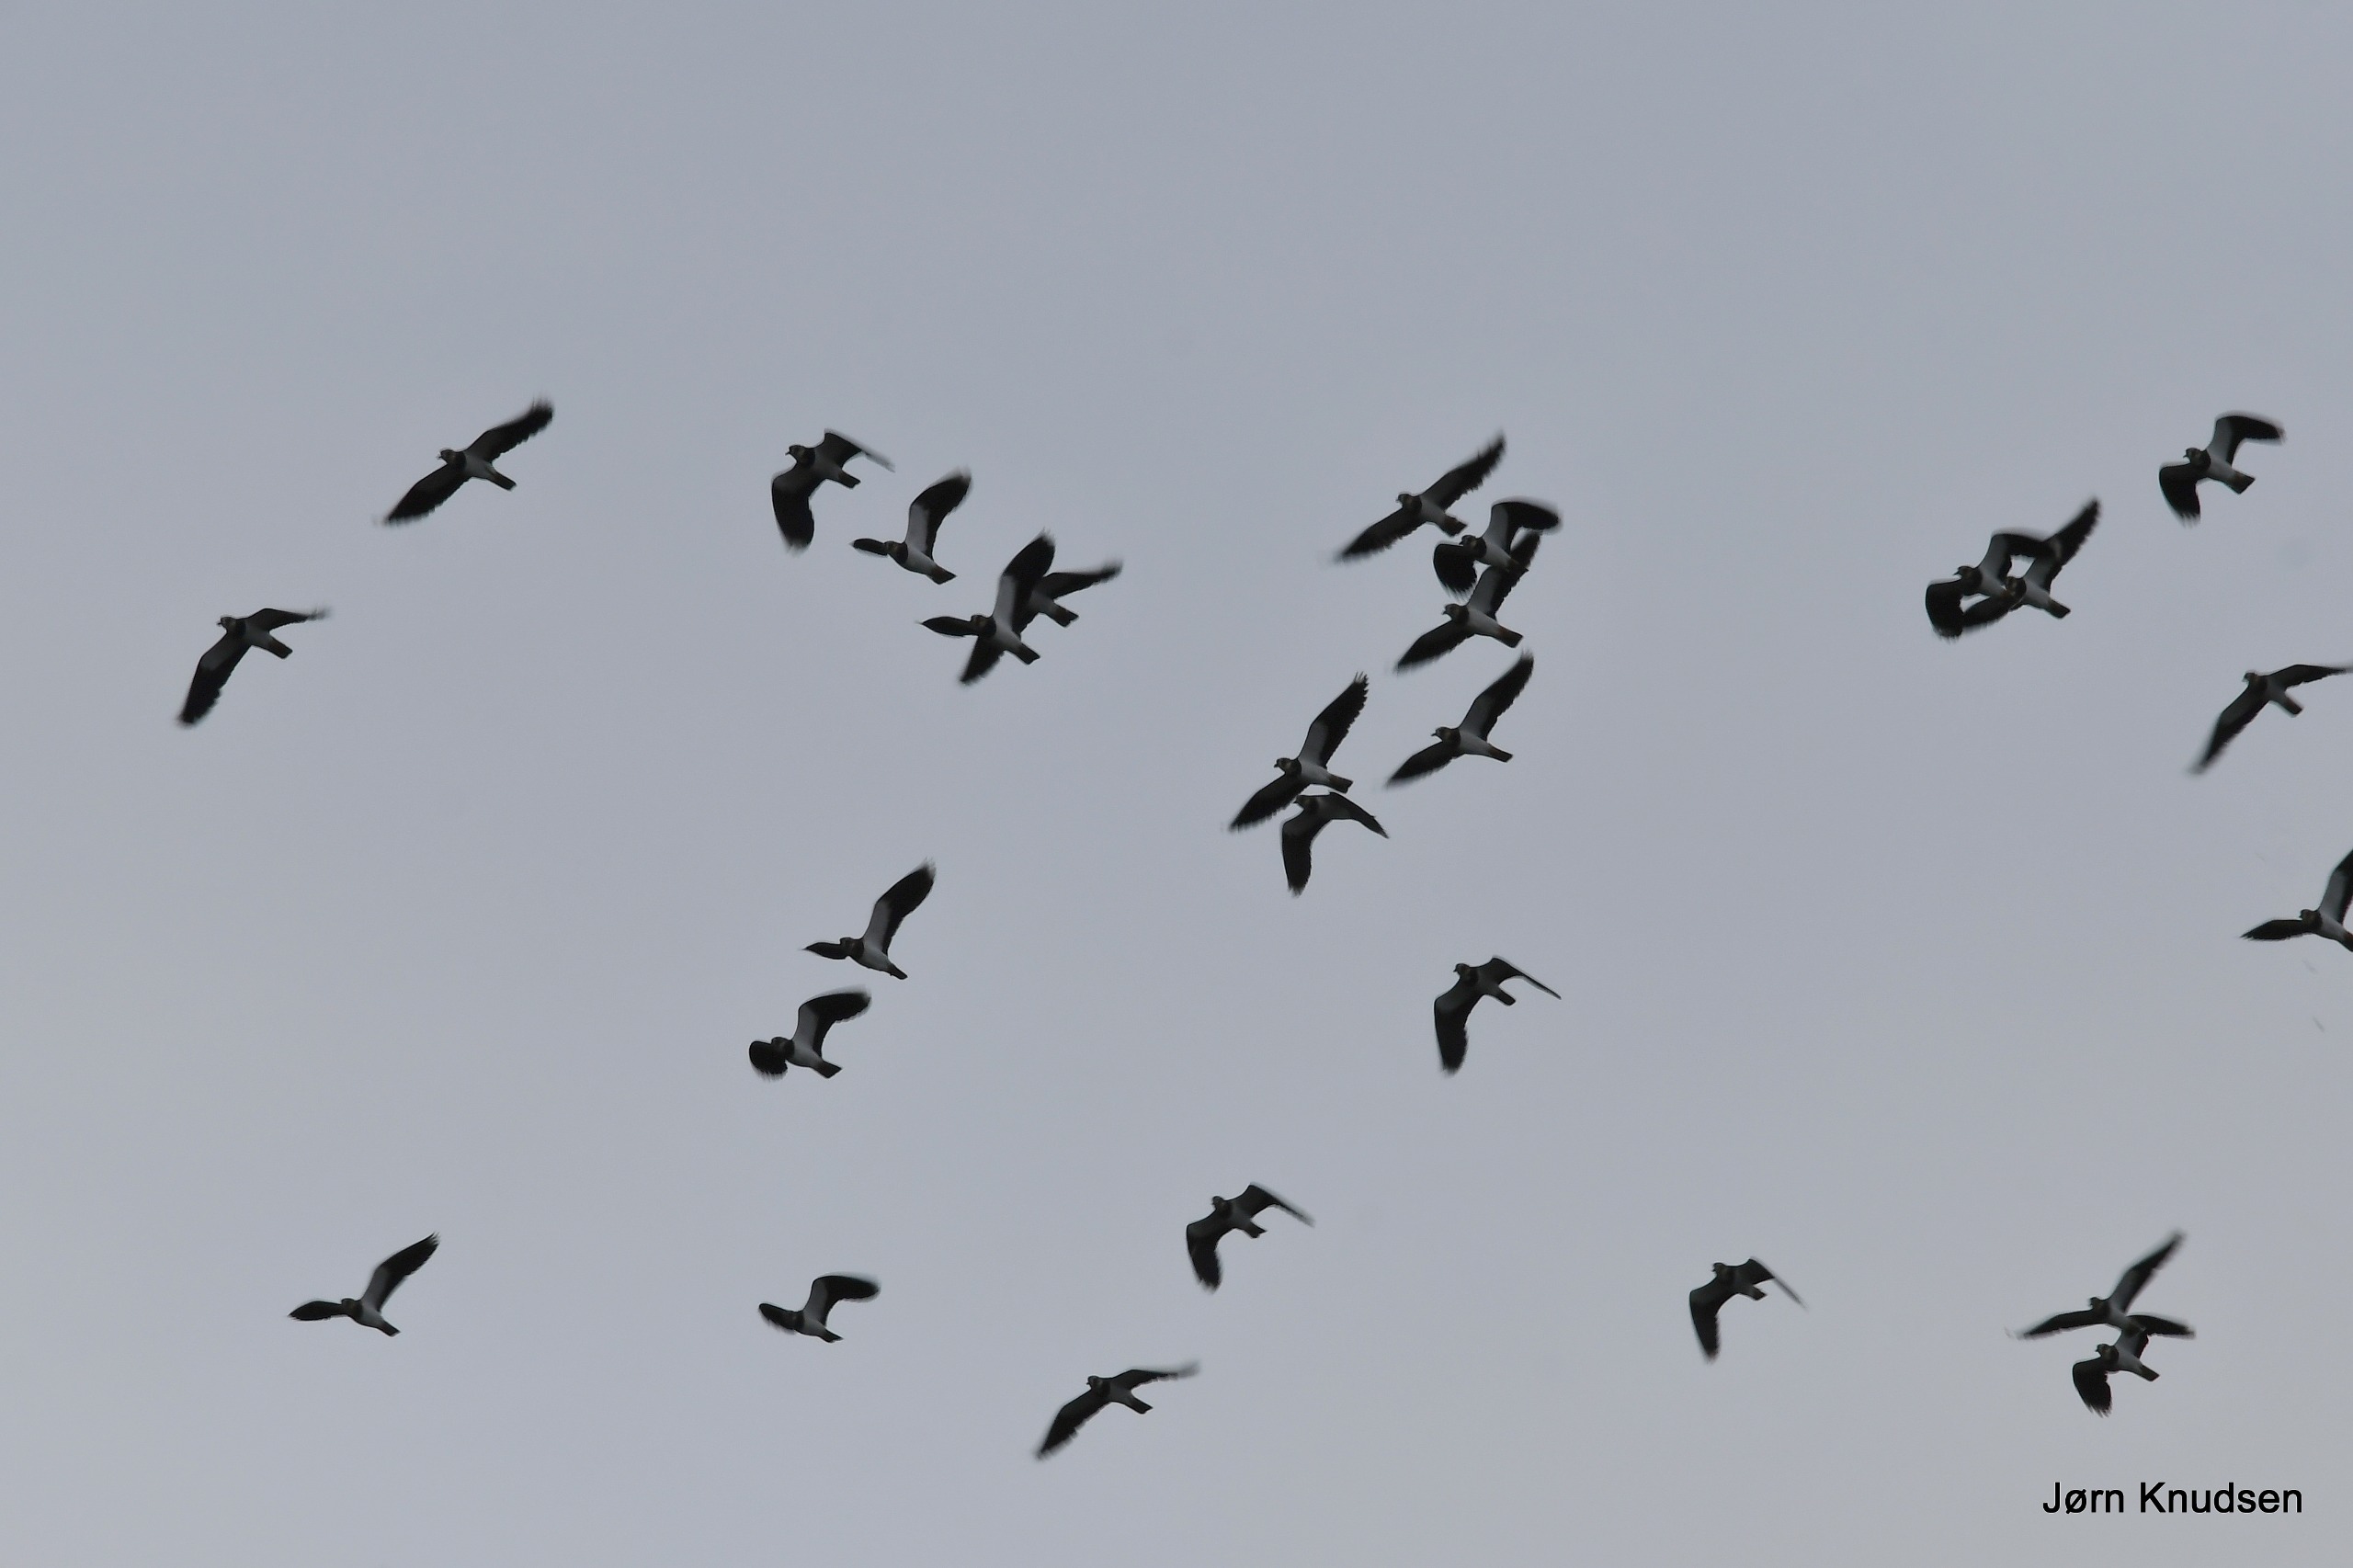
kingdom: Animalia
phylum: Chordata
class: Aves
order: Charadriiformes
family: Charadriidae
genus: Vanellus
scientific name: Vanellus vanellus
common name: Vibe
